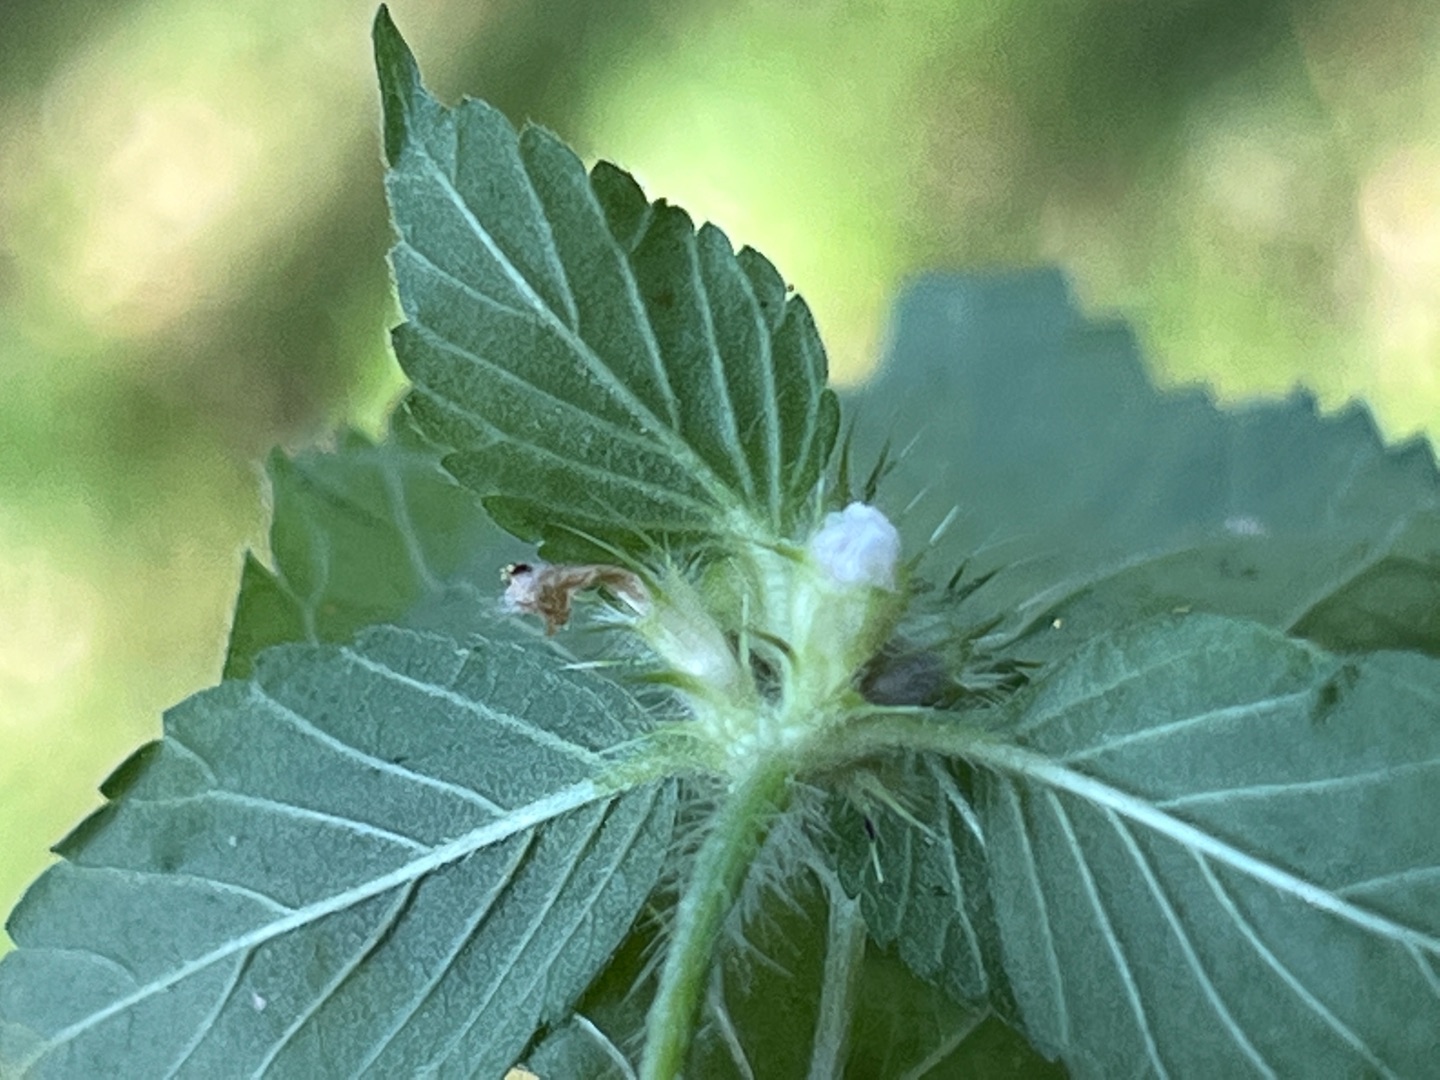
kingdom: Animalia
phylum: Arthropoda
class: Insecta
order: Diptera
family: Cecidomyiidae
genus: Dasineura
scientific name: Dasineura tetrahit
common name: Hanekrogalmyg
